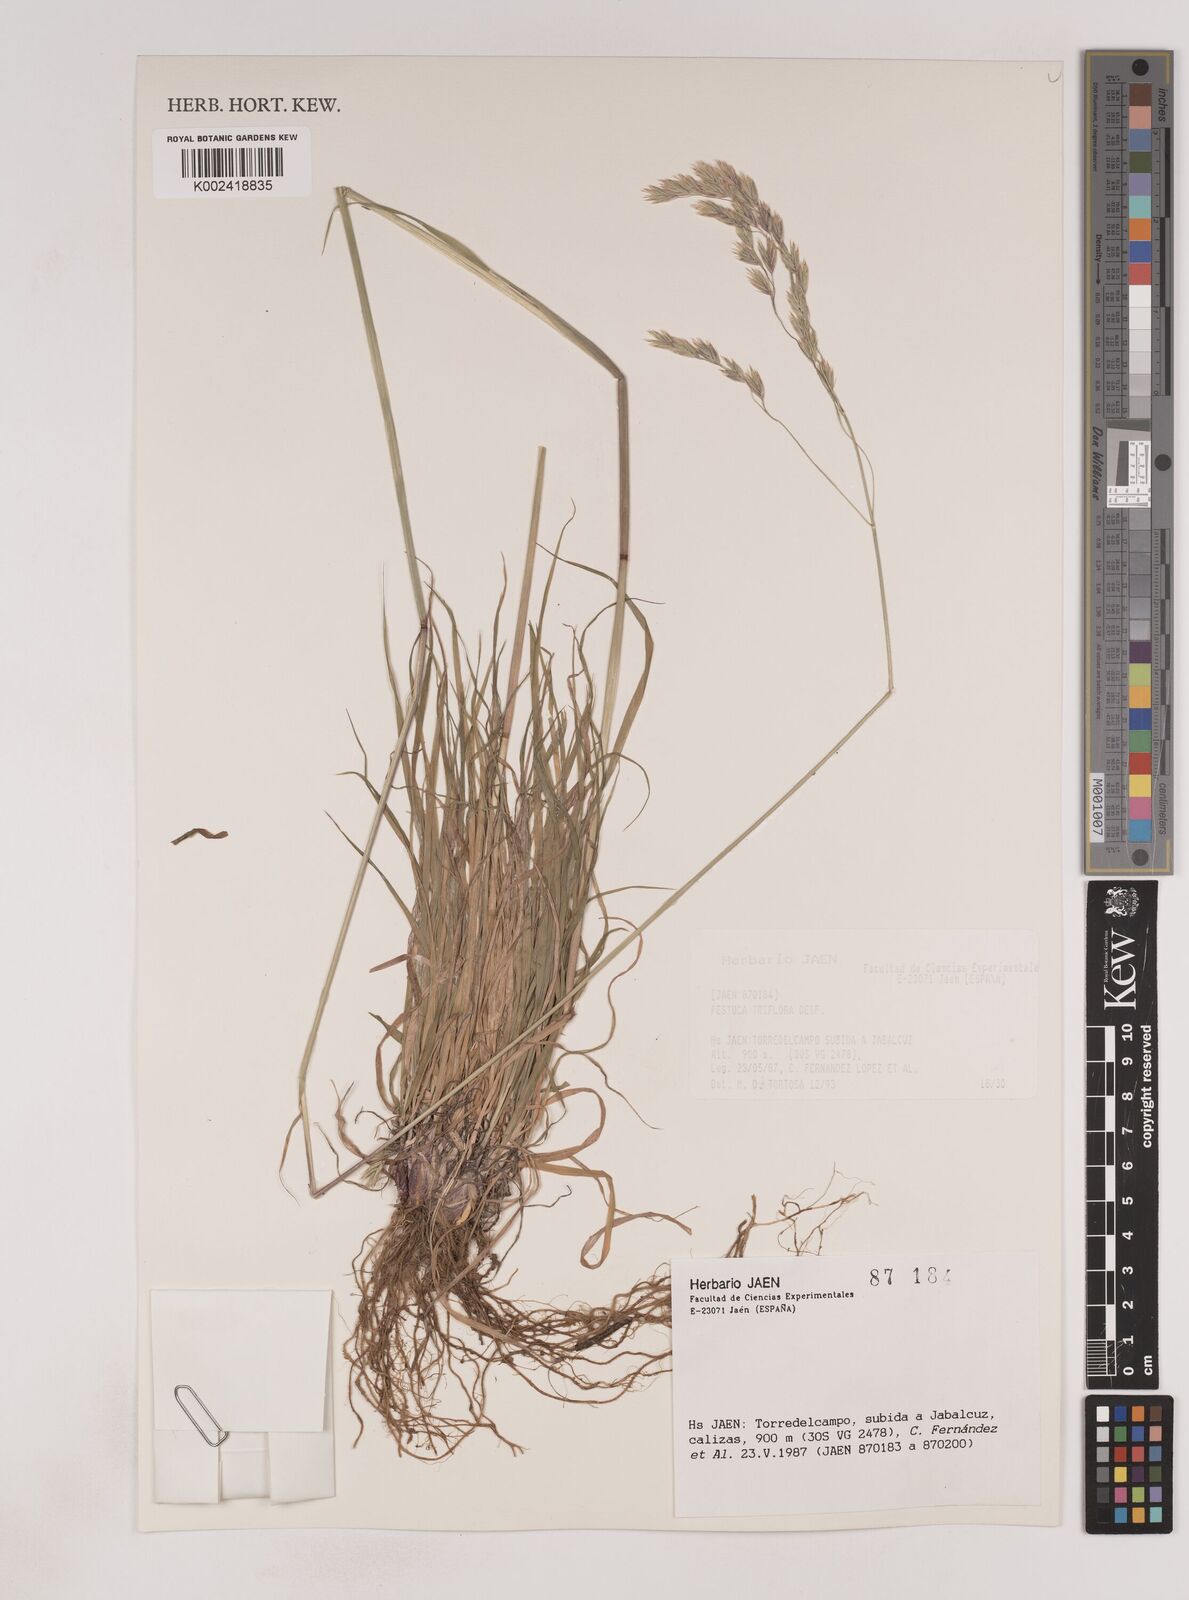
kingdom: Plantae
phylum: Tracheophyta
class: Liliopsida
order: Poales
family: Poaceae
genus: Patzkea
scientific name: Patzkea patula
